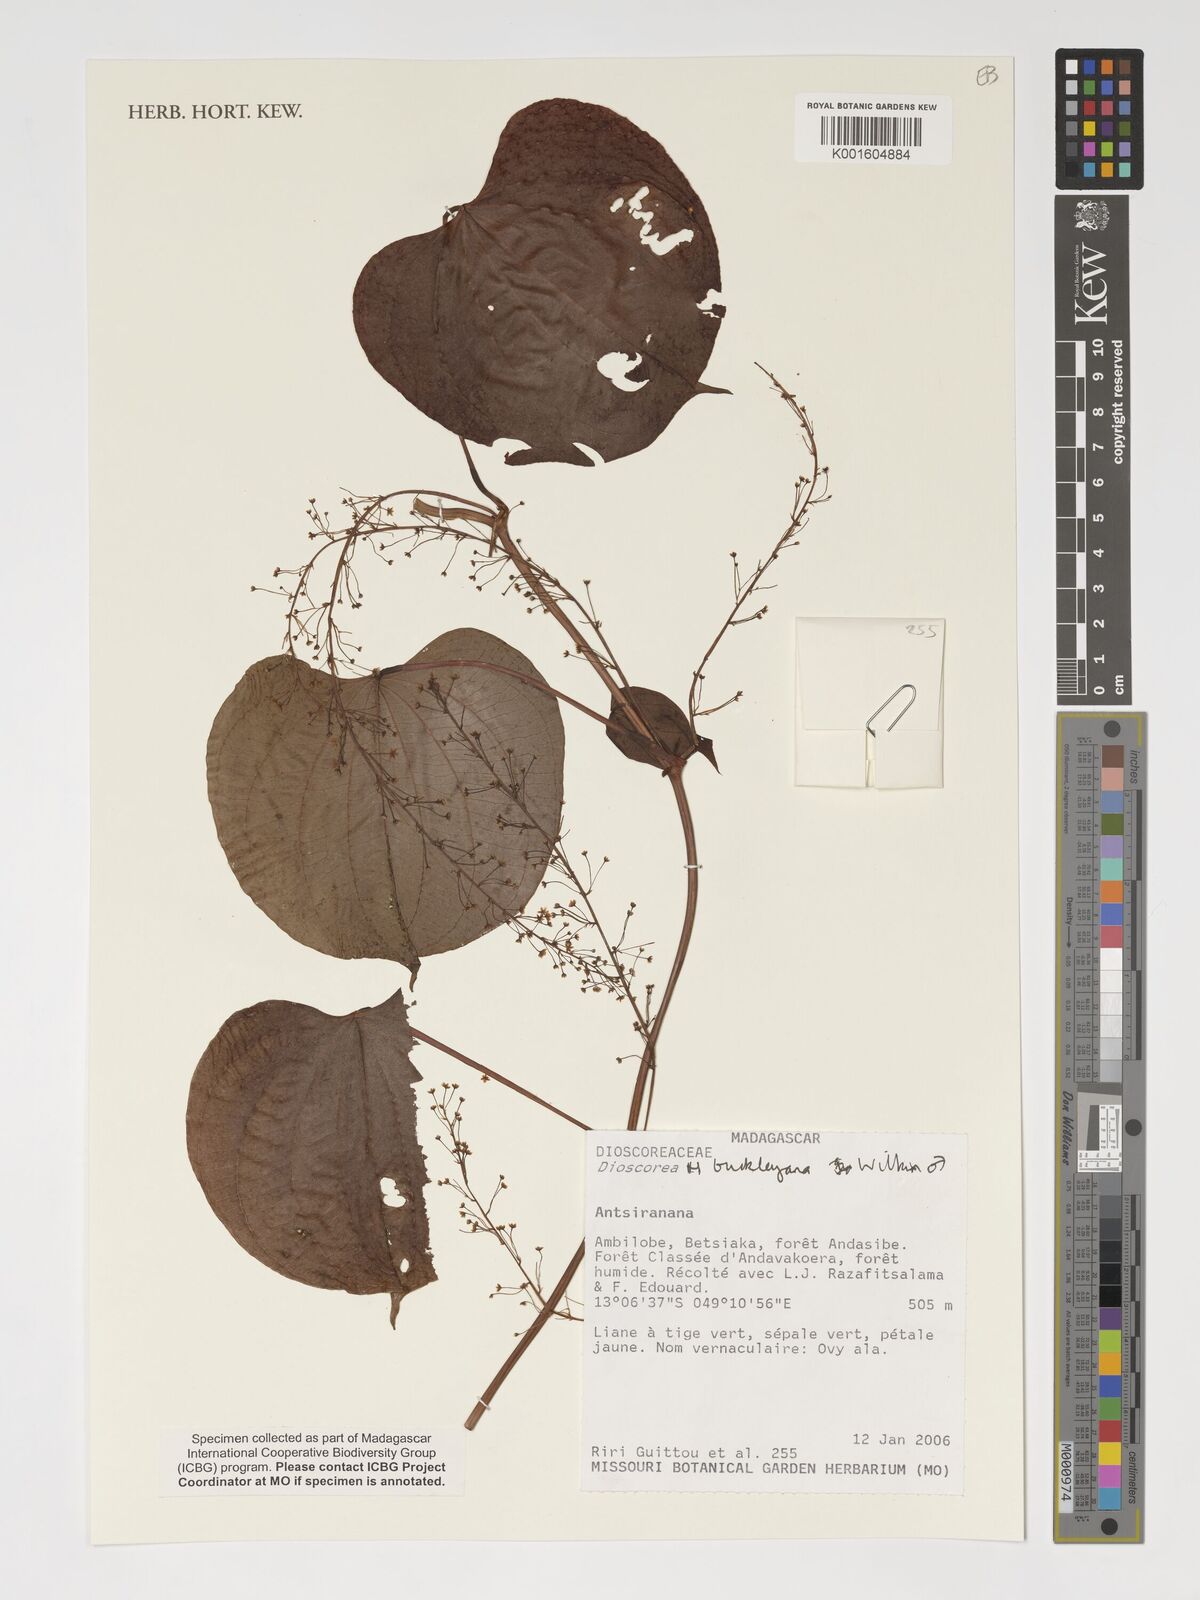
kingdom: Plantae
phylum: Tracheophyta
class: Liliopsida
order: Dioscoreales
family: Dioscoreaceae
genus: Dioscorea
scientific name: Dioscorea buckleyana
